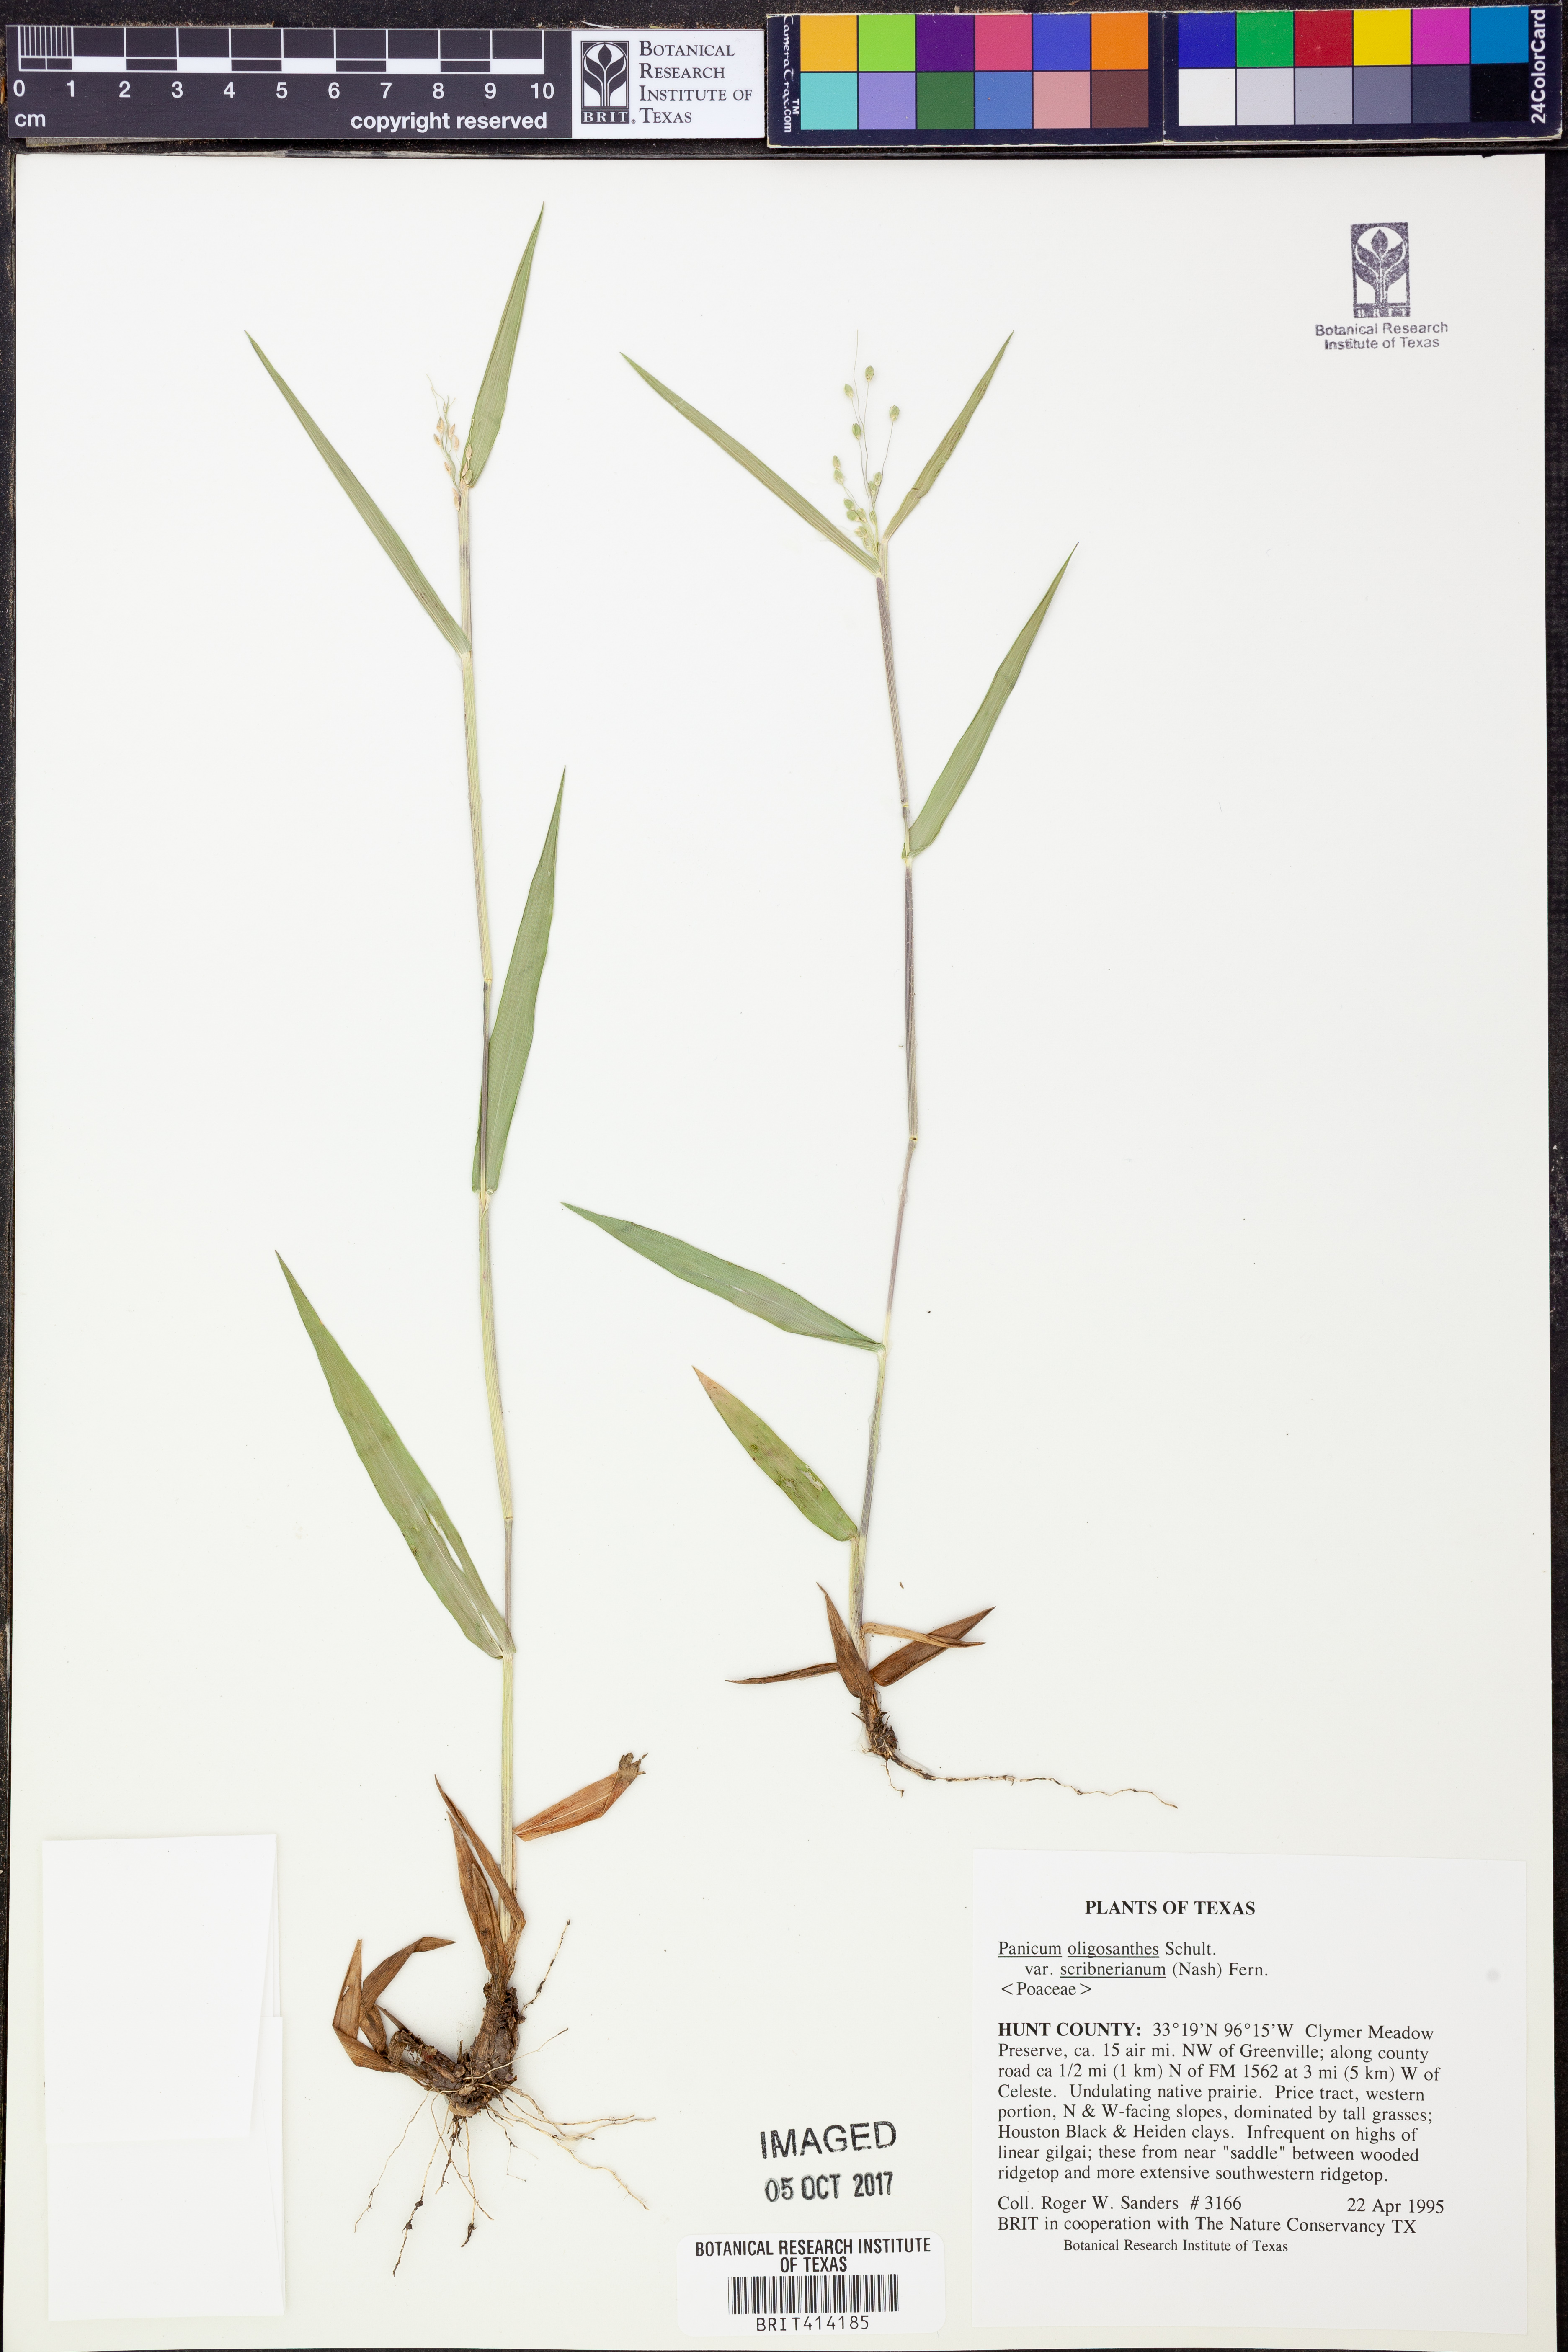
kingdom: Plantae
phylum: Tracheophyta
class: Liliopsida
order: Poales
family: Poaceae
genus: Dichanthelium
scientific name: Dichanthelium scribnerianum
